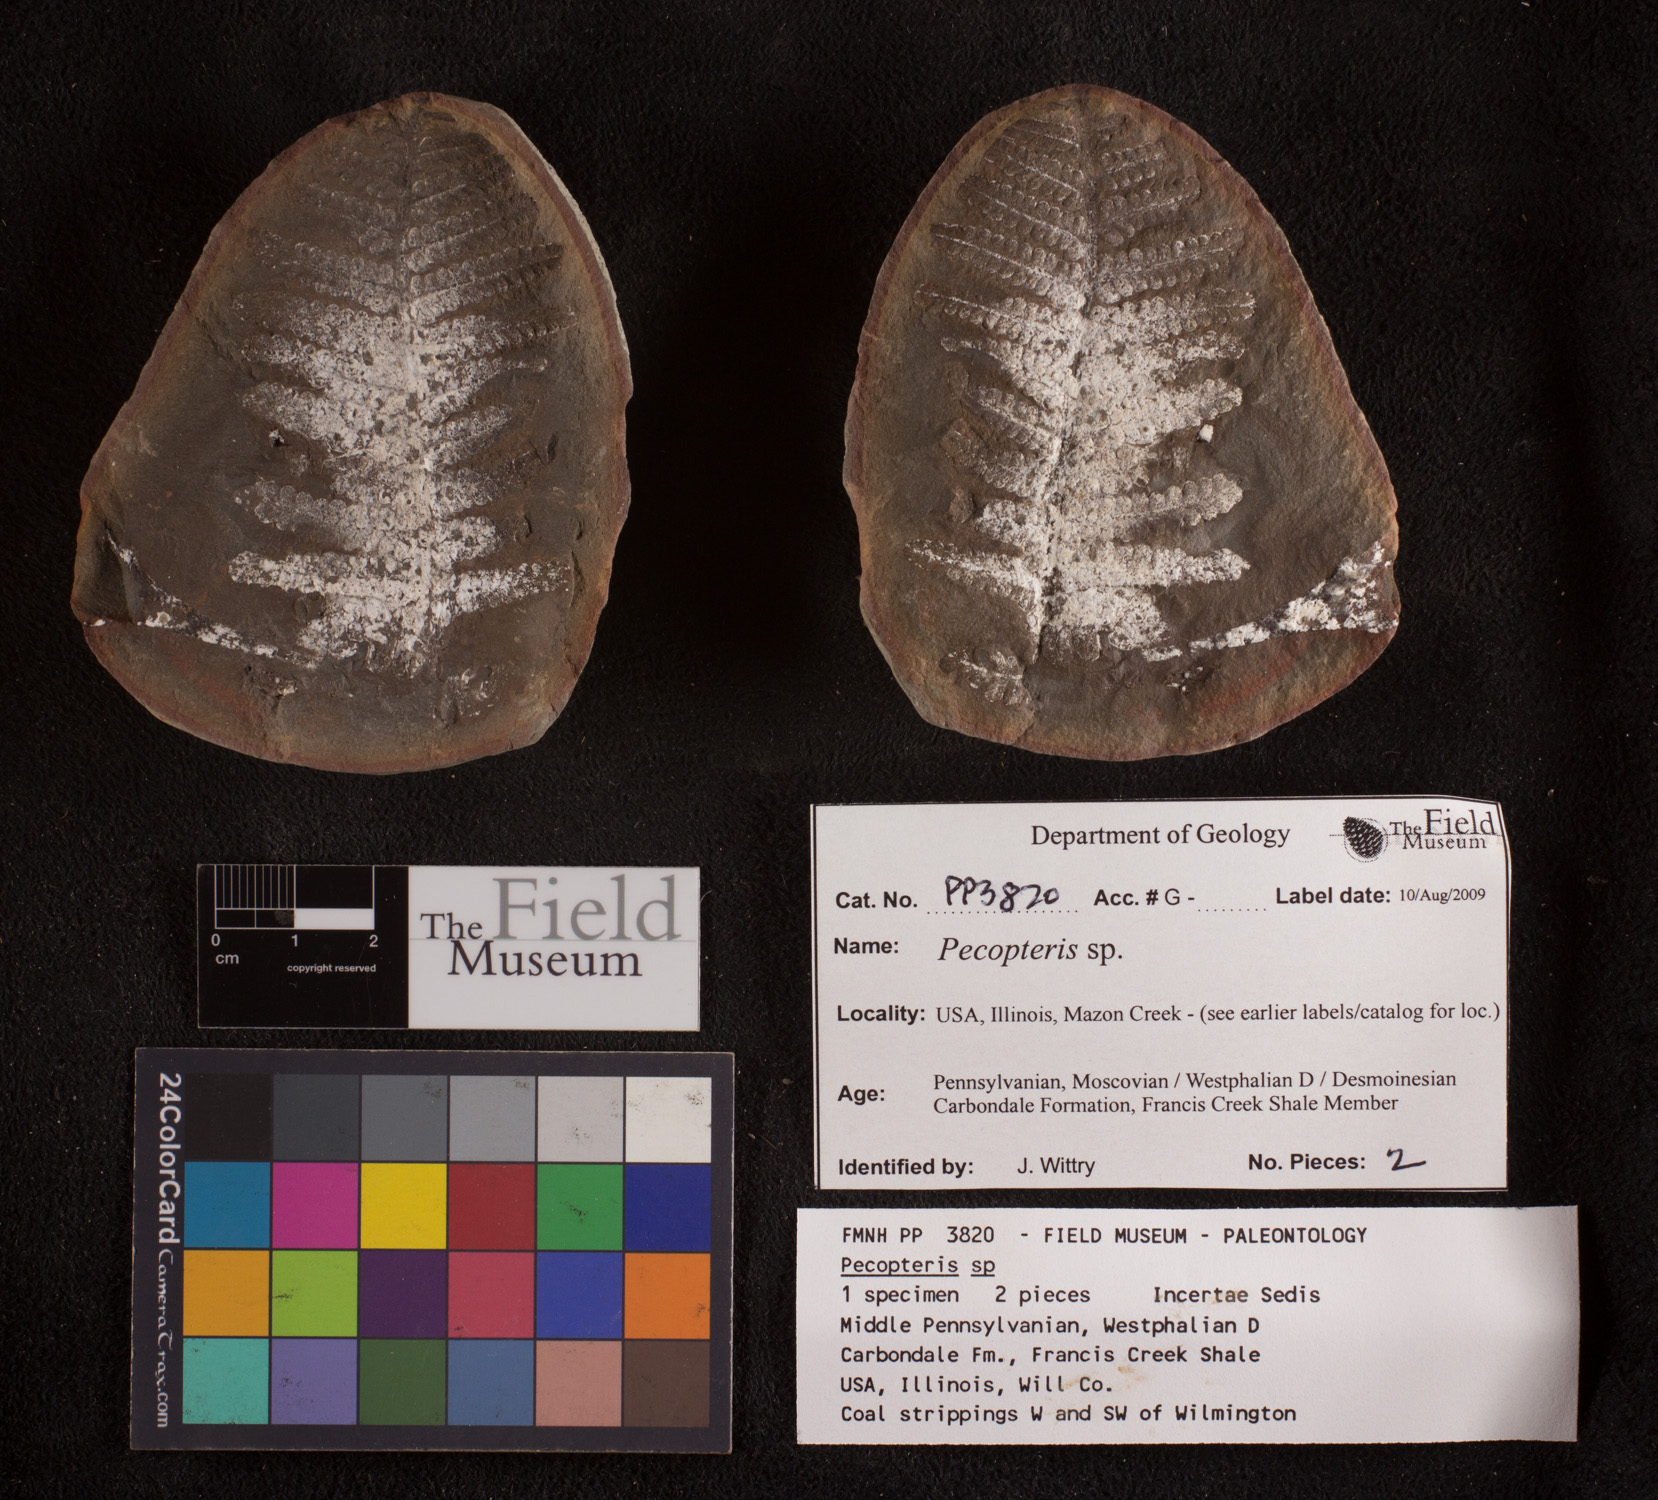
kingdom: Plantae
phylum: Tracheophyta
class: Polypodiopsida
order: Marattiales
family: Asterothecaceae
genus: Pecopteris
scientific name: Pecopteris
